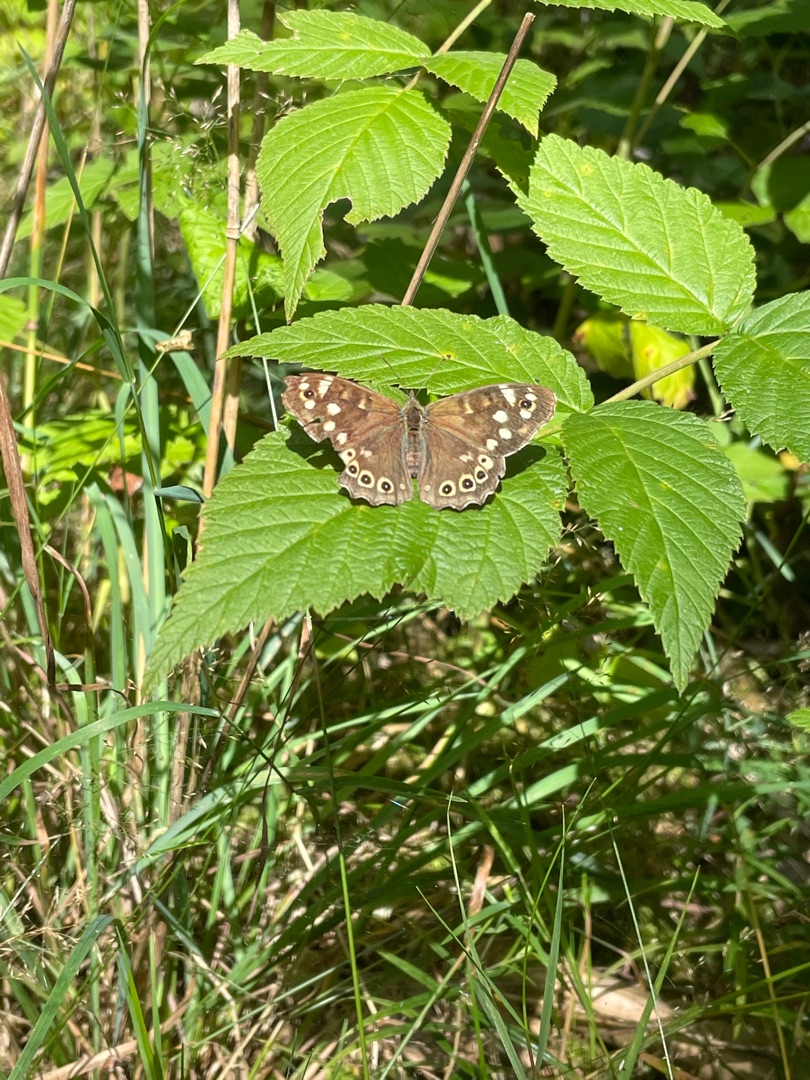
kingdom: Animalia
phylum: Arthropoda
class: Insecta
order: Lepidoptera
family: Nymphalidae
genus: Pararge
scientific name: Pararge aegeria
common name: Skovrandøje
